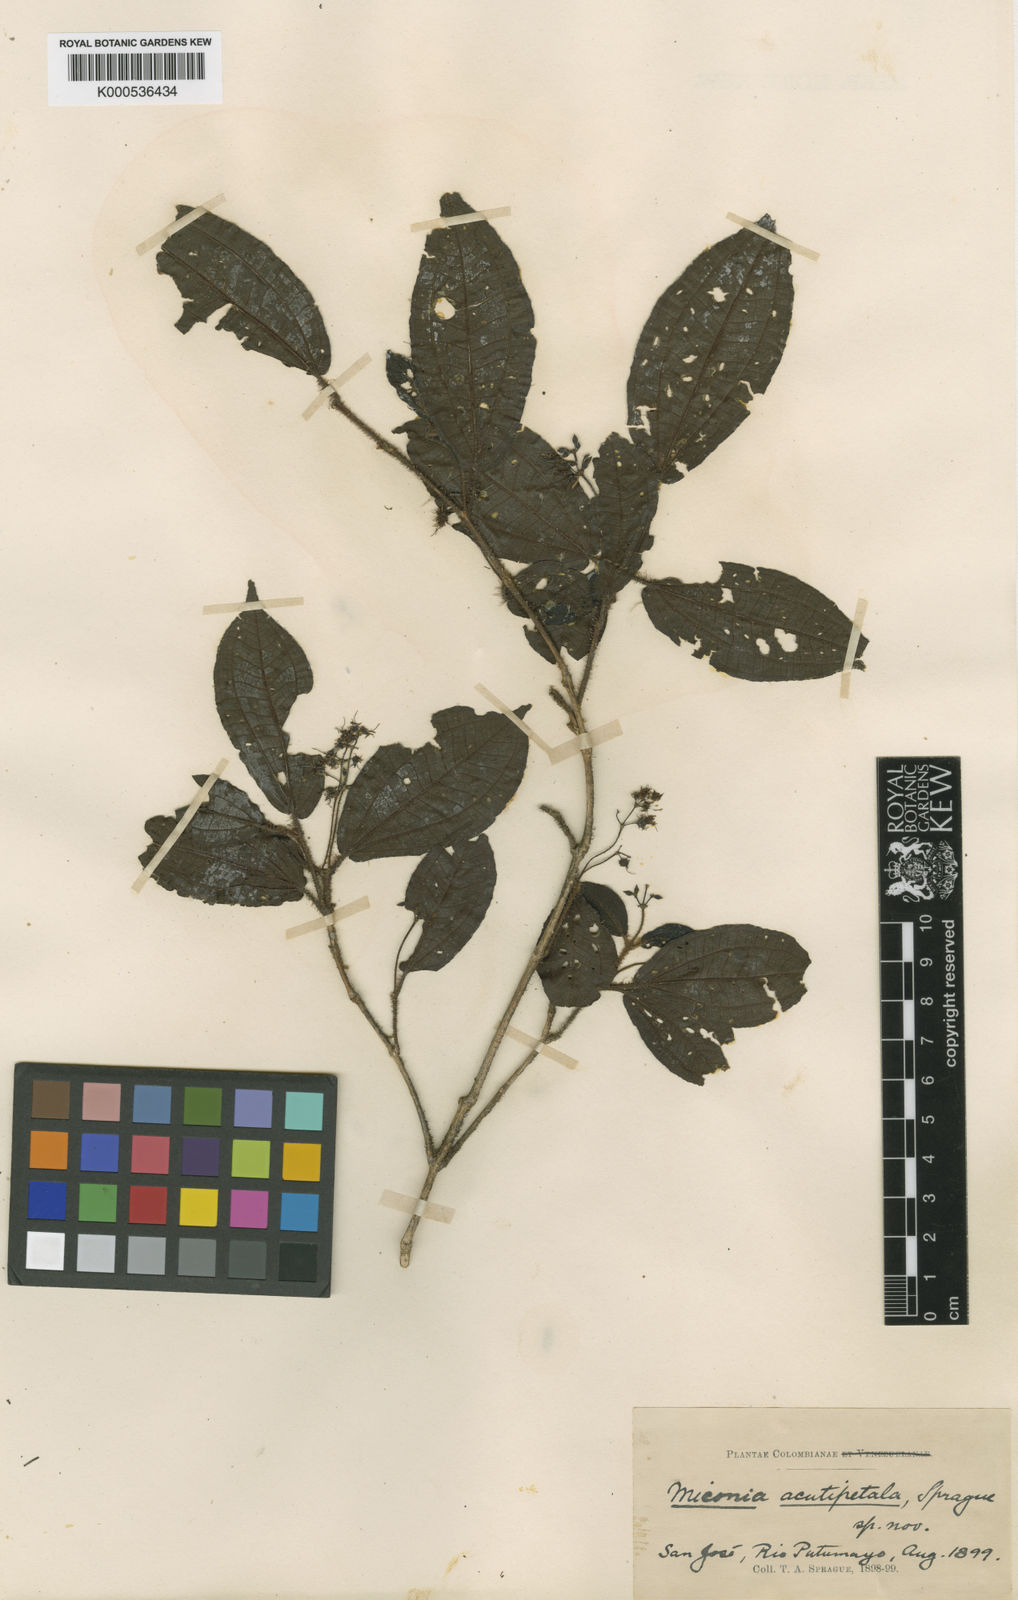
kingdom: Plantae
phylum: Tracheophyta
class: Magnoliopsida
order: Myrtales
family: Melastomataceae
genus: Miconia
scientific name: Miconia acutipetala
